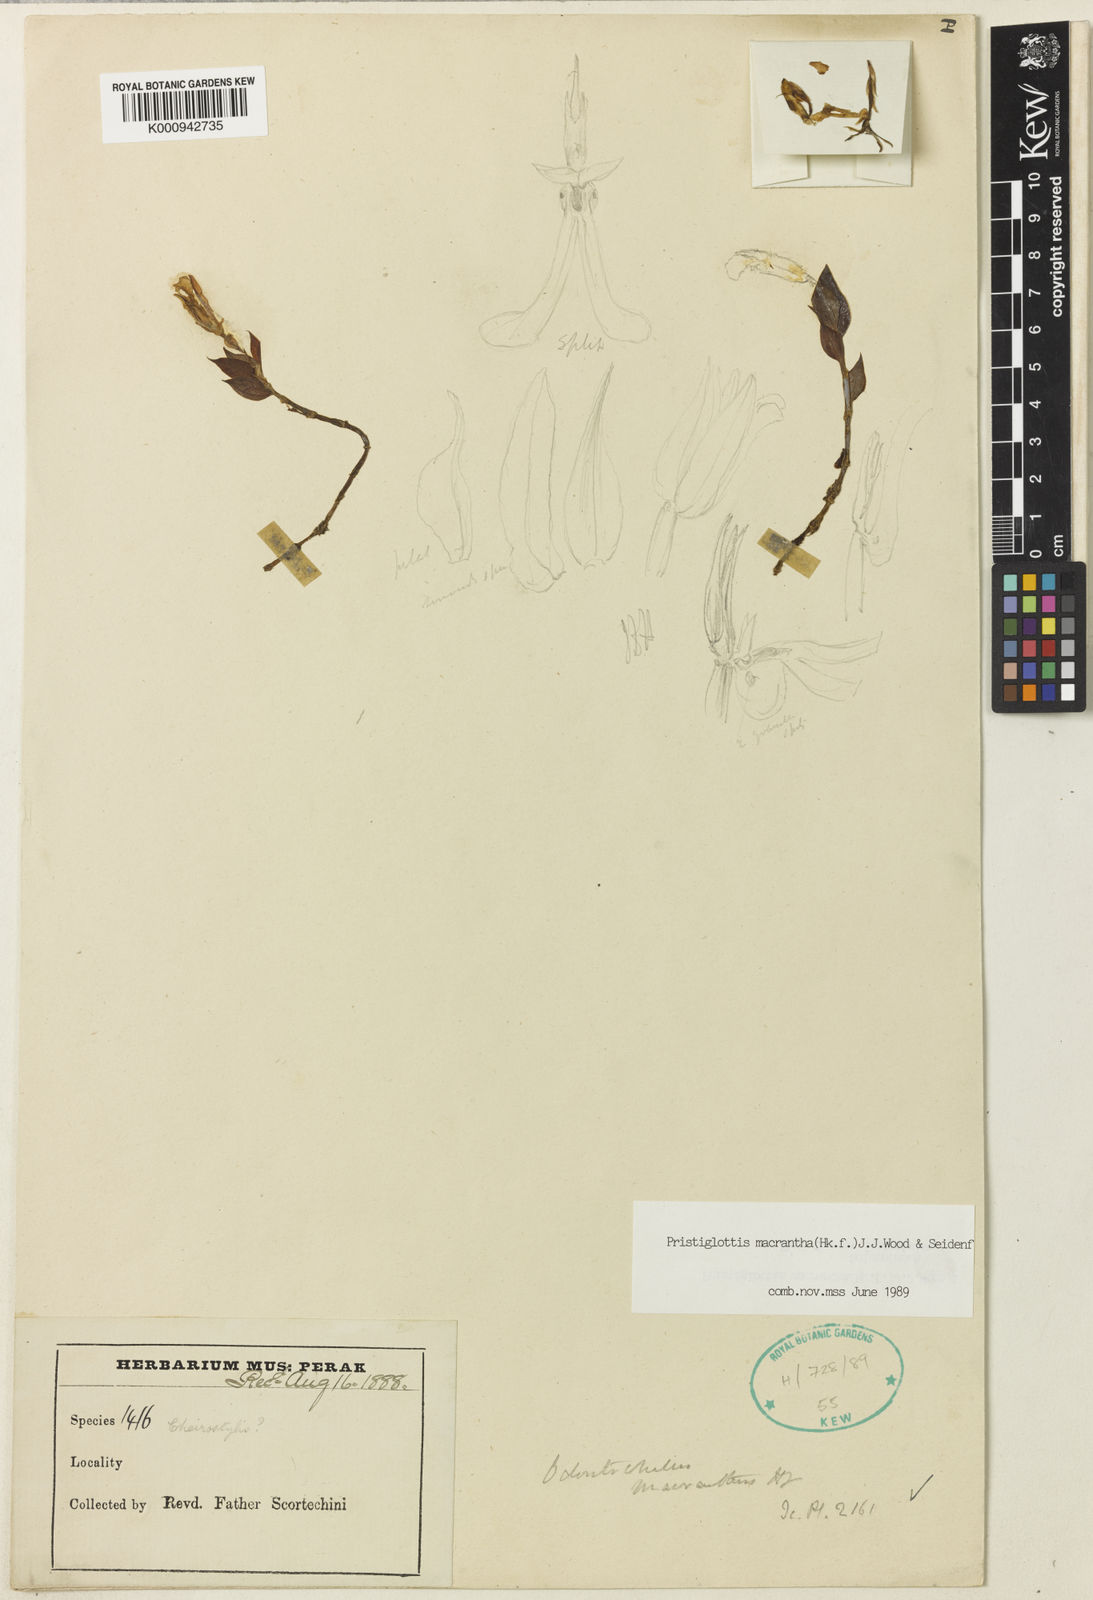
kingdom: Plantae
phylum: Tracheophyta
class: Liliopsida
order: Asparagales
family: Orchidaceae
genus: Odontochilus
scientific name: Odontochilus macranthus
